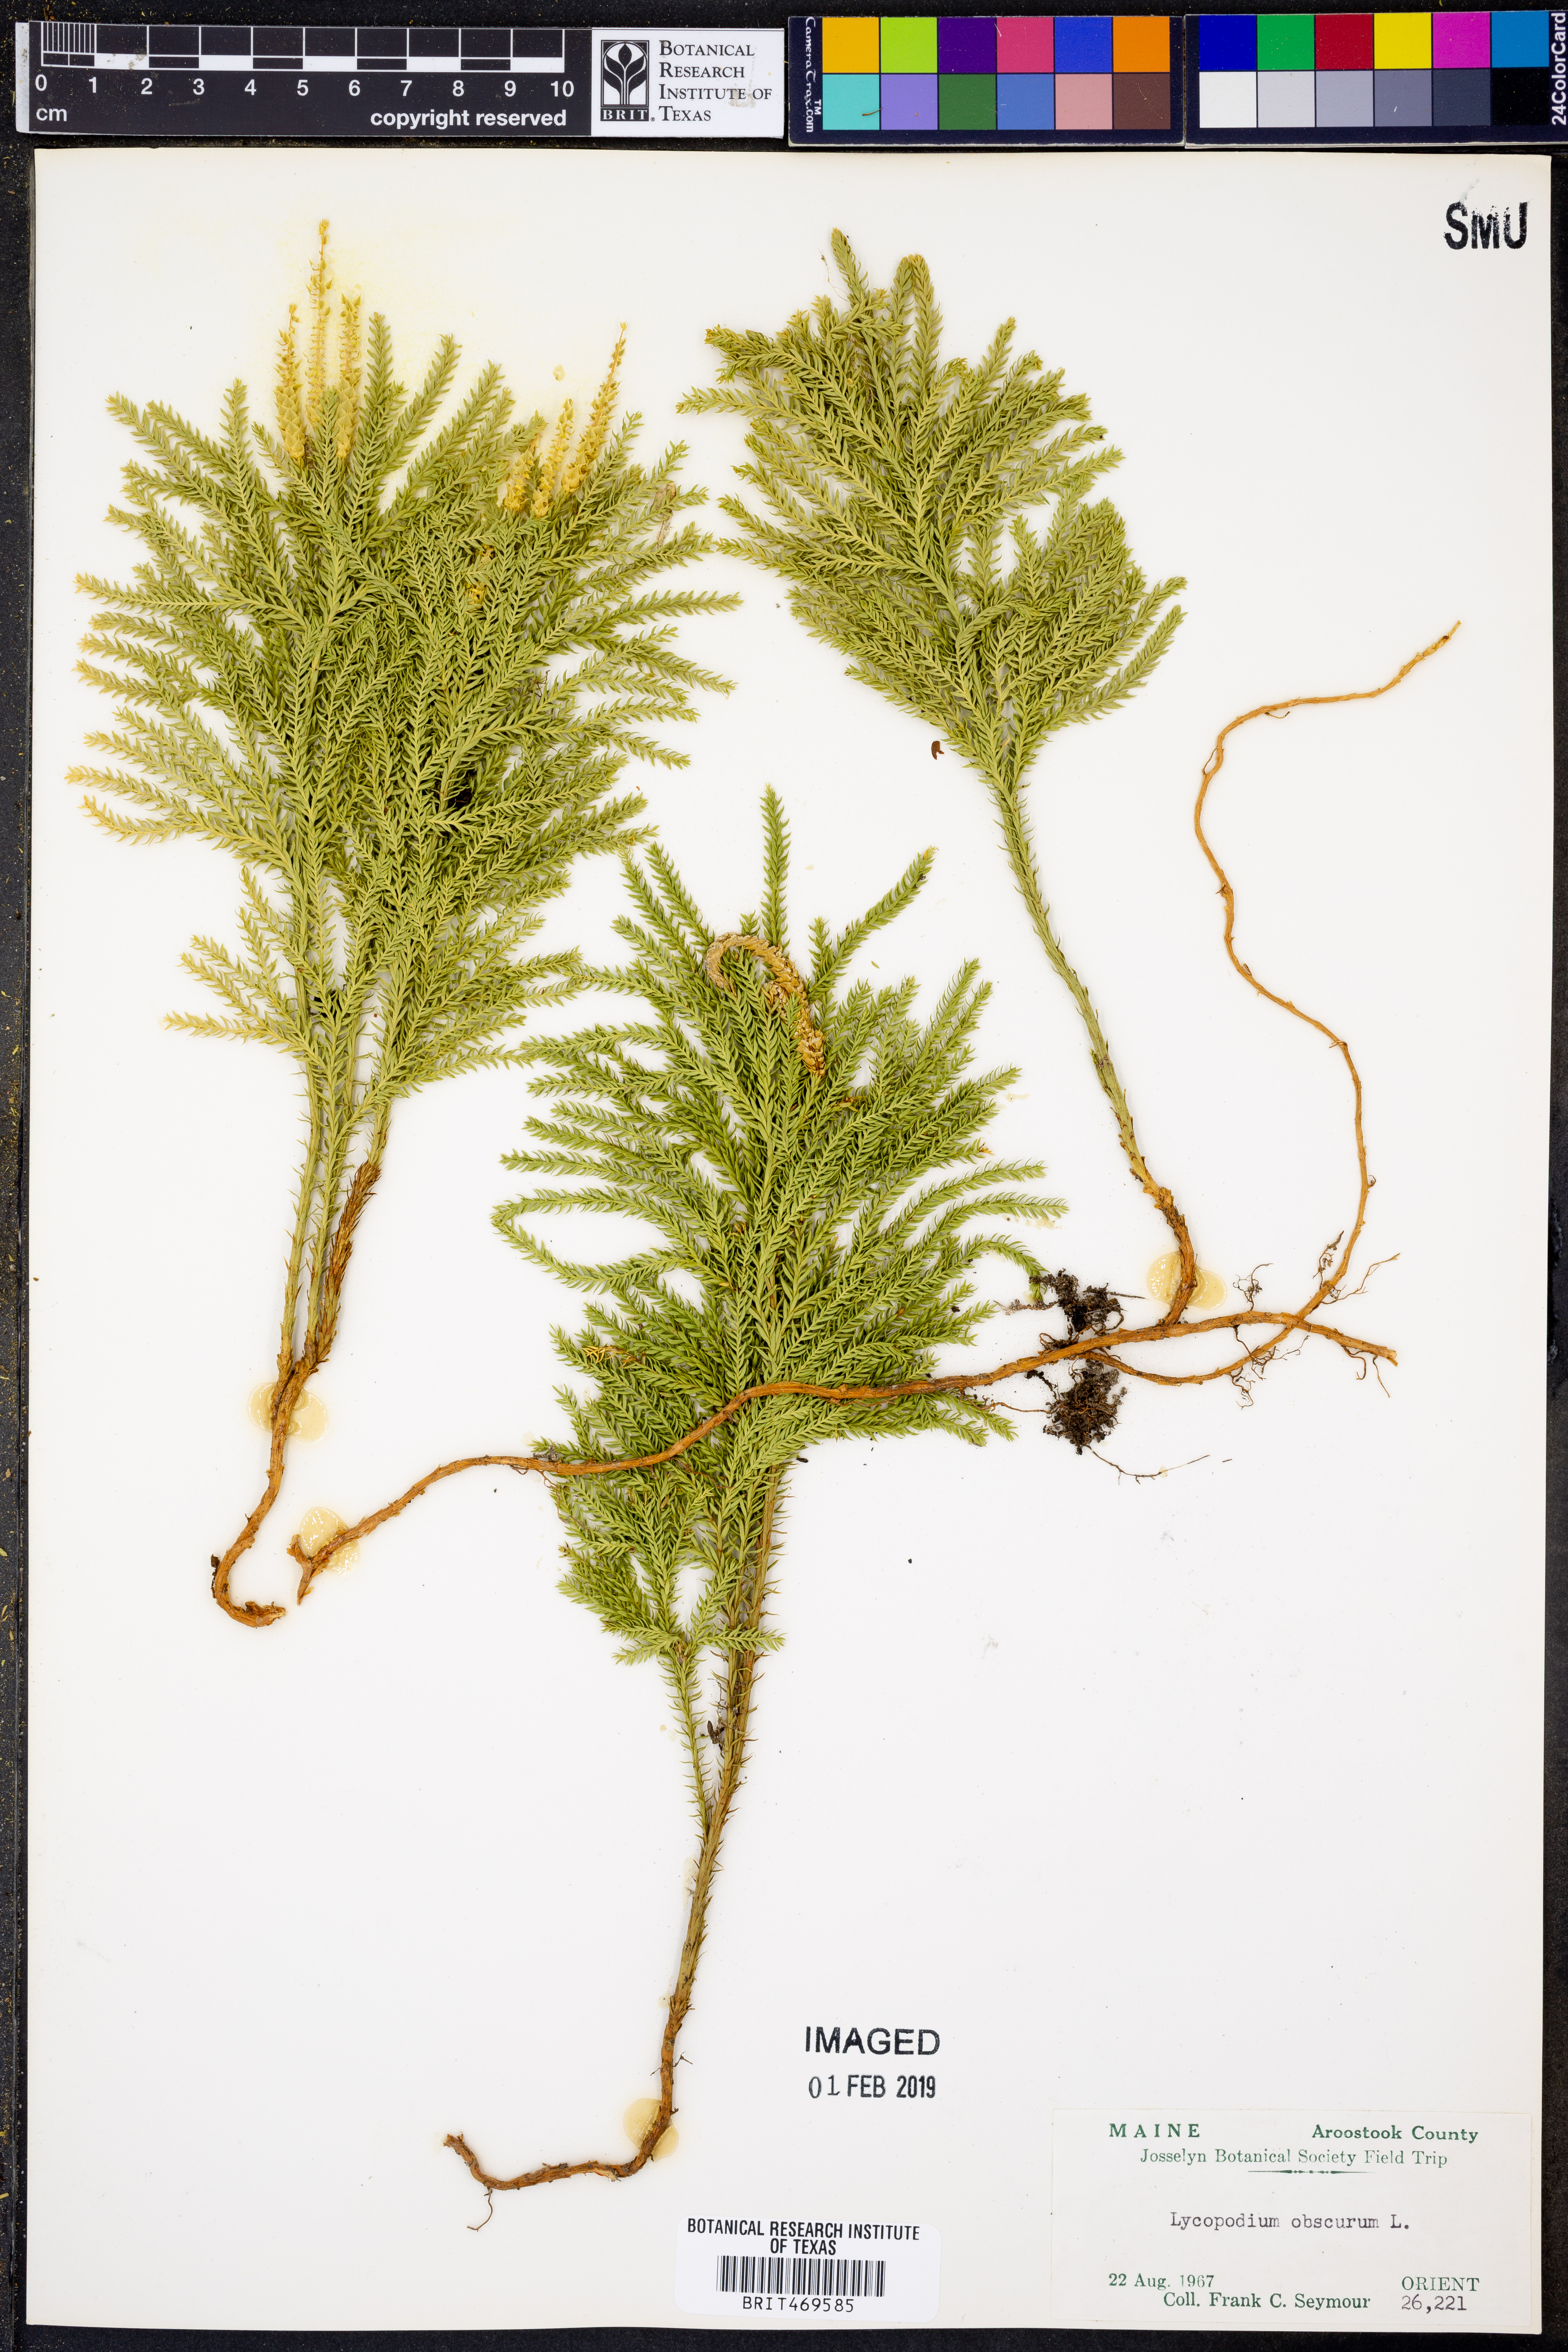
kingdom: Plantae
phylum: Tracheophyta
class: Lycopodiopsida
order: Lycopodiales
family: Lycopodiaceae
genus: Dendrolycopodium
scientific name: Dendrolycopodium obscurum
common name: Common ground-pine
